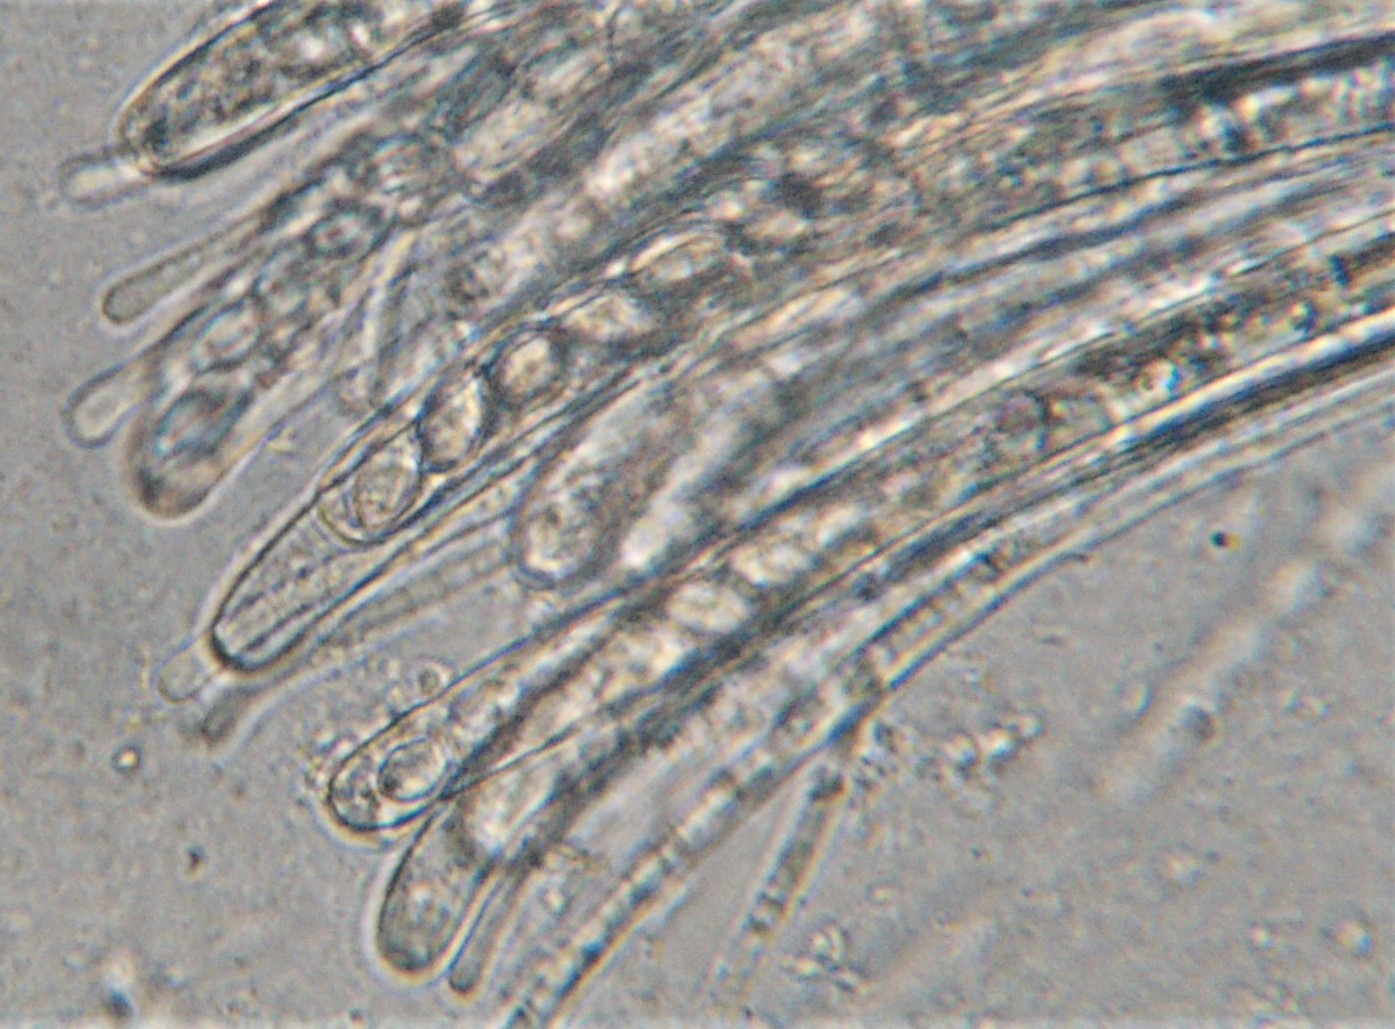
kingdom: Fungi
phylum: Ascomycota
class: Pezizomycetes
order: Pezizales
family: Pezizaceae
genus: Peziza
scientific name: Peziza
